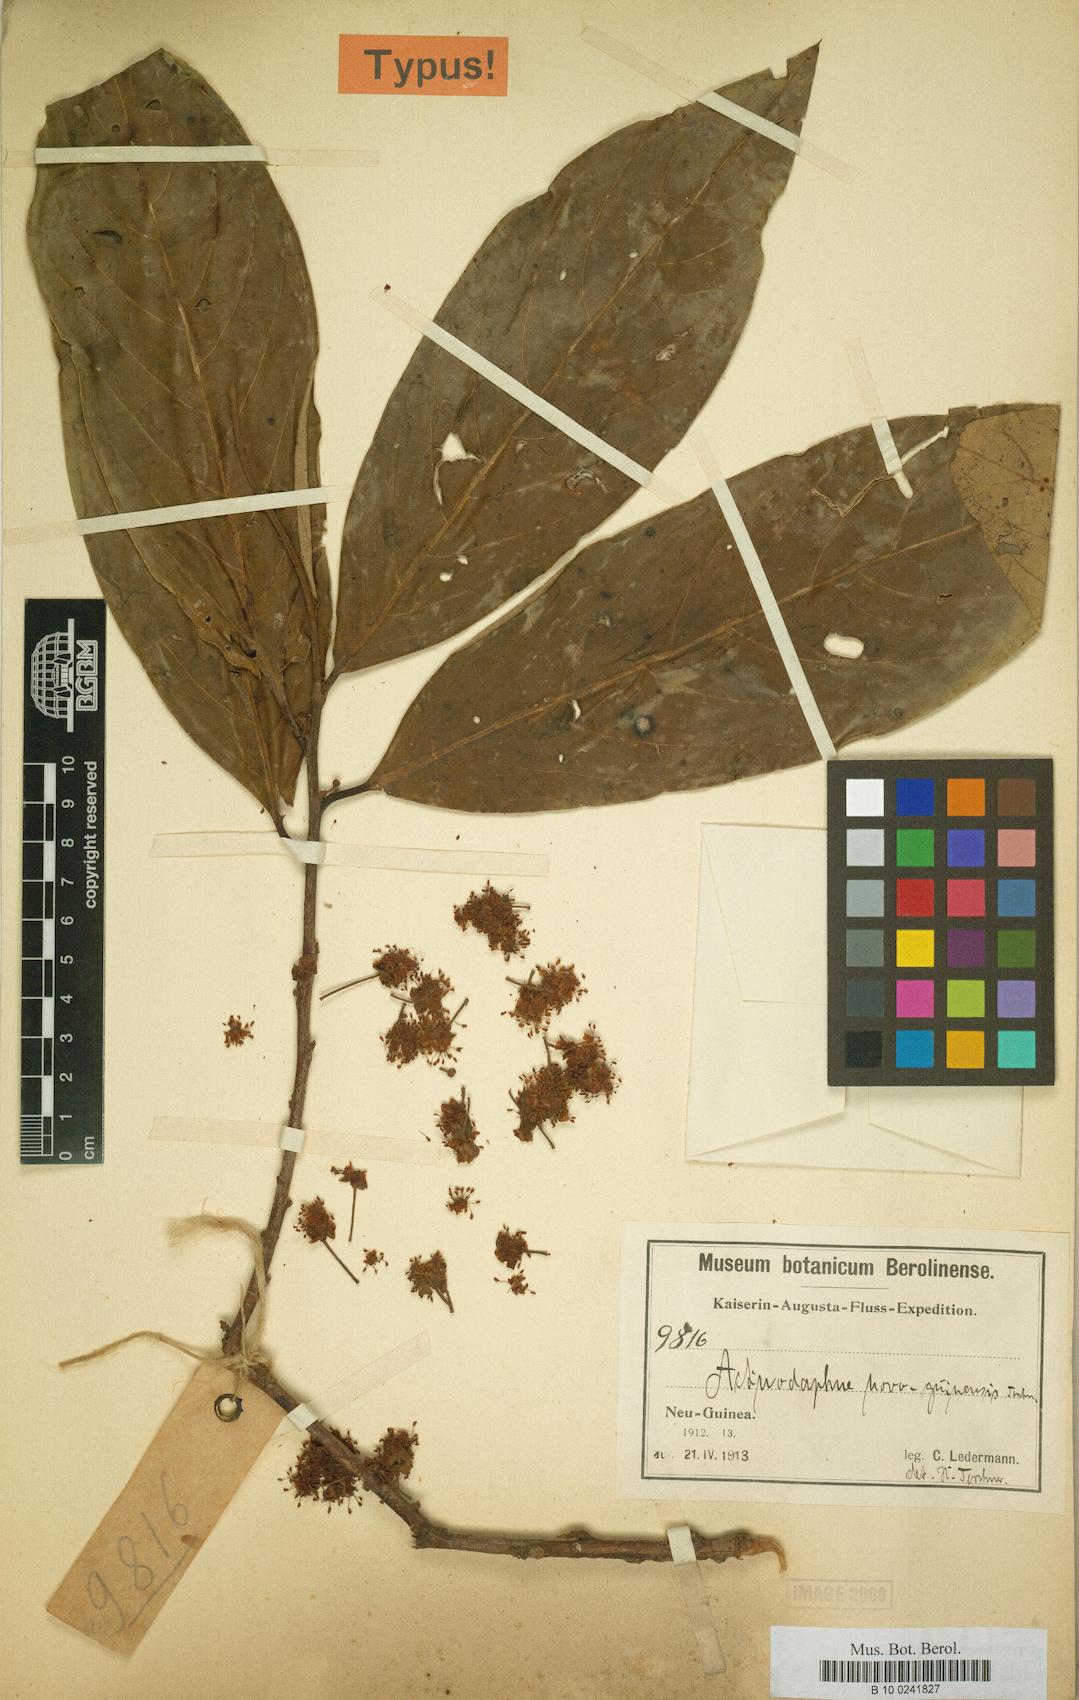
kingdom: Plantae
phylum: Tracheophyta
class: Magnoliopsida
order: Laurales
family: Lauraceae
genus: Actinodaphne
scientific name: Actinodaphne nitida
